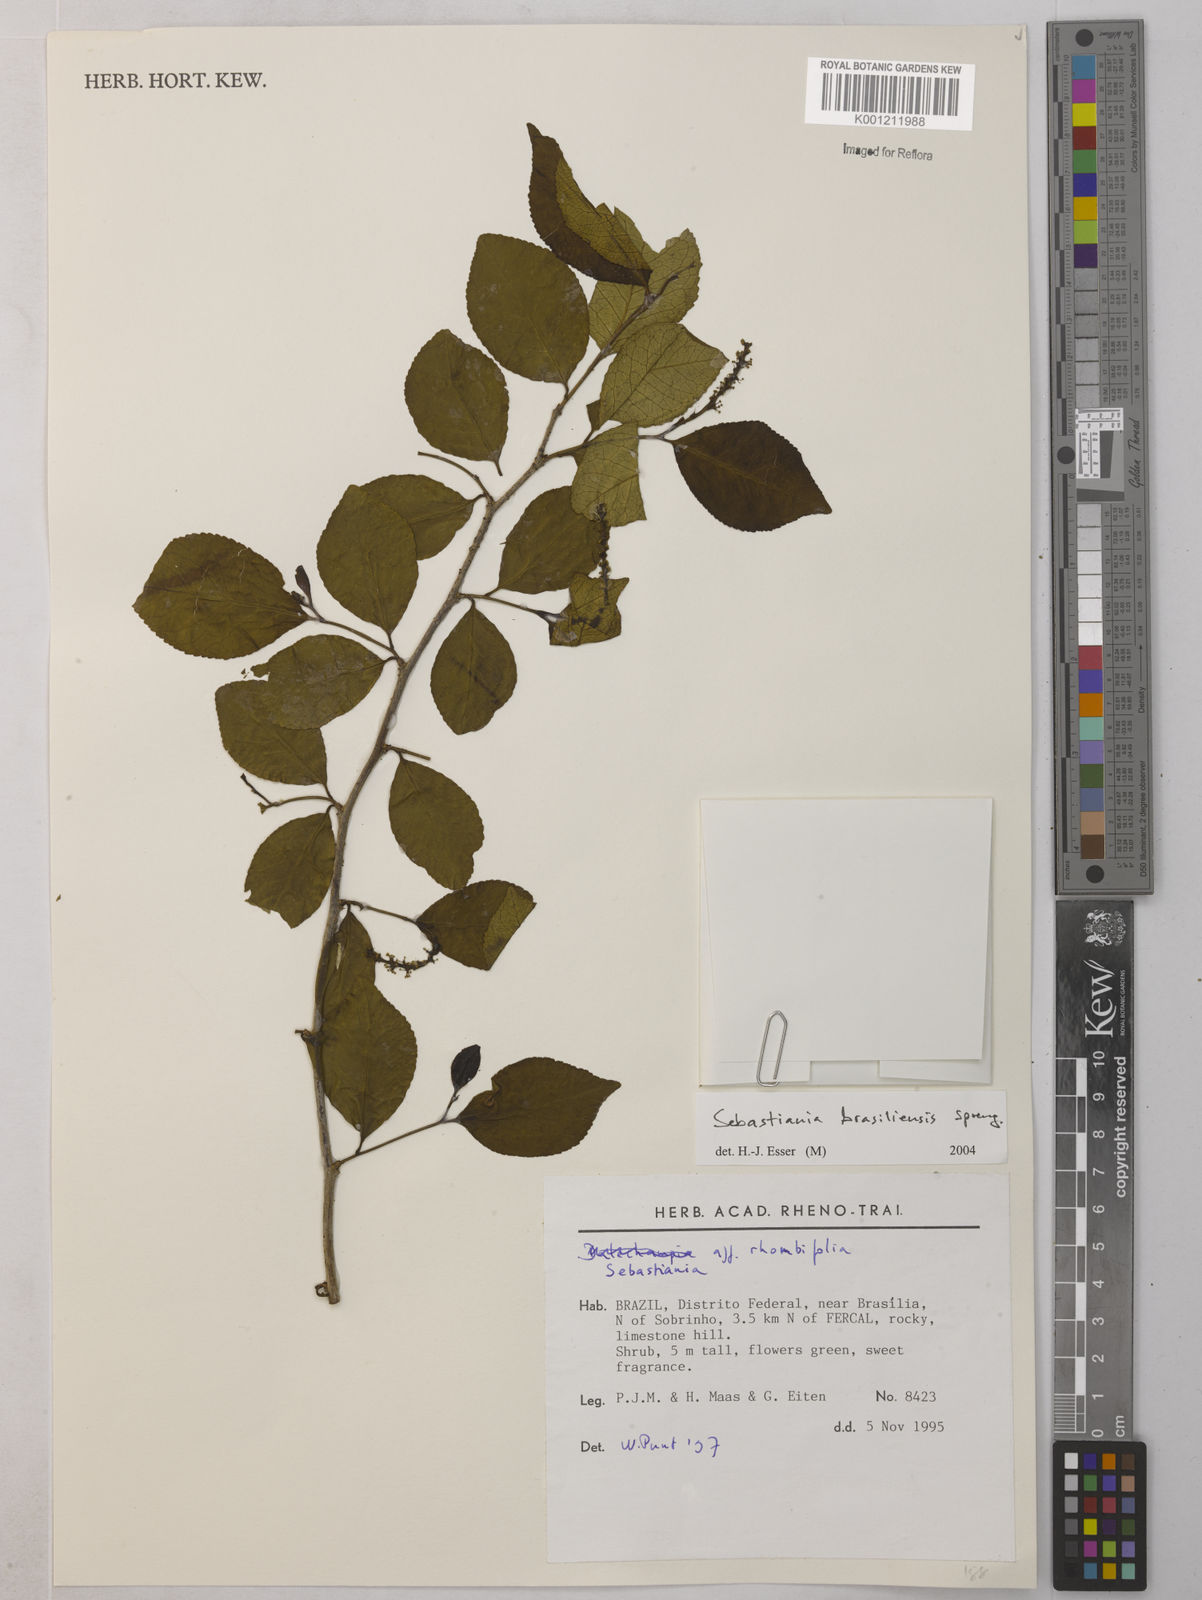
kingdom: Plantae
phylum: Tracheophyta
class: Magnoliopsida
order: Malpighiales
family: Euphorbiaceae
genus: Sebastiania
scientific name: Sebastiania brasiliensis
